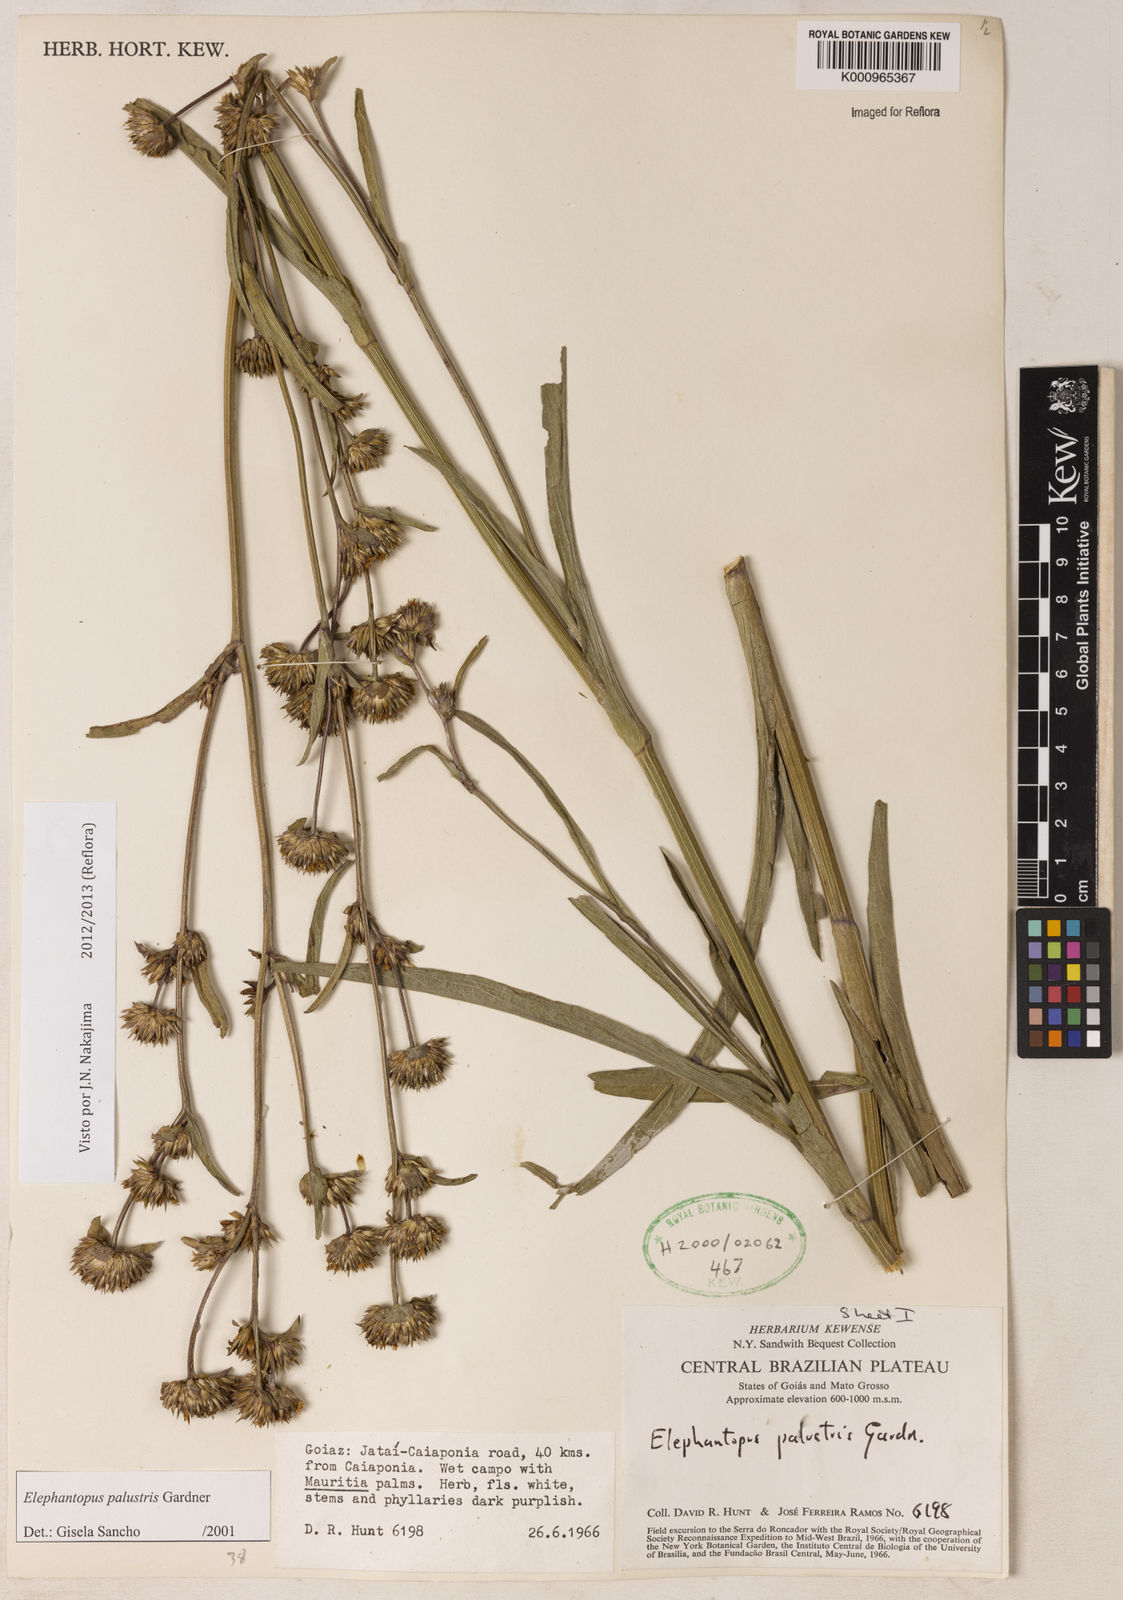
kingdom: Plantae
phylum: Tracheophyta
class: Magnoliopsida
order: Asterales
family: Asteraceae
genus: Elephantopus
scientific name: Elephantopus palustris
